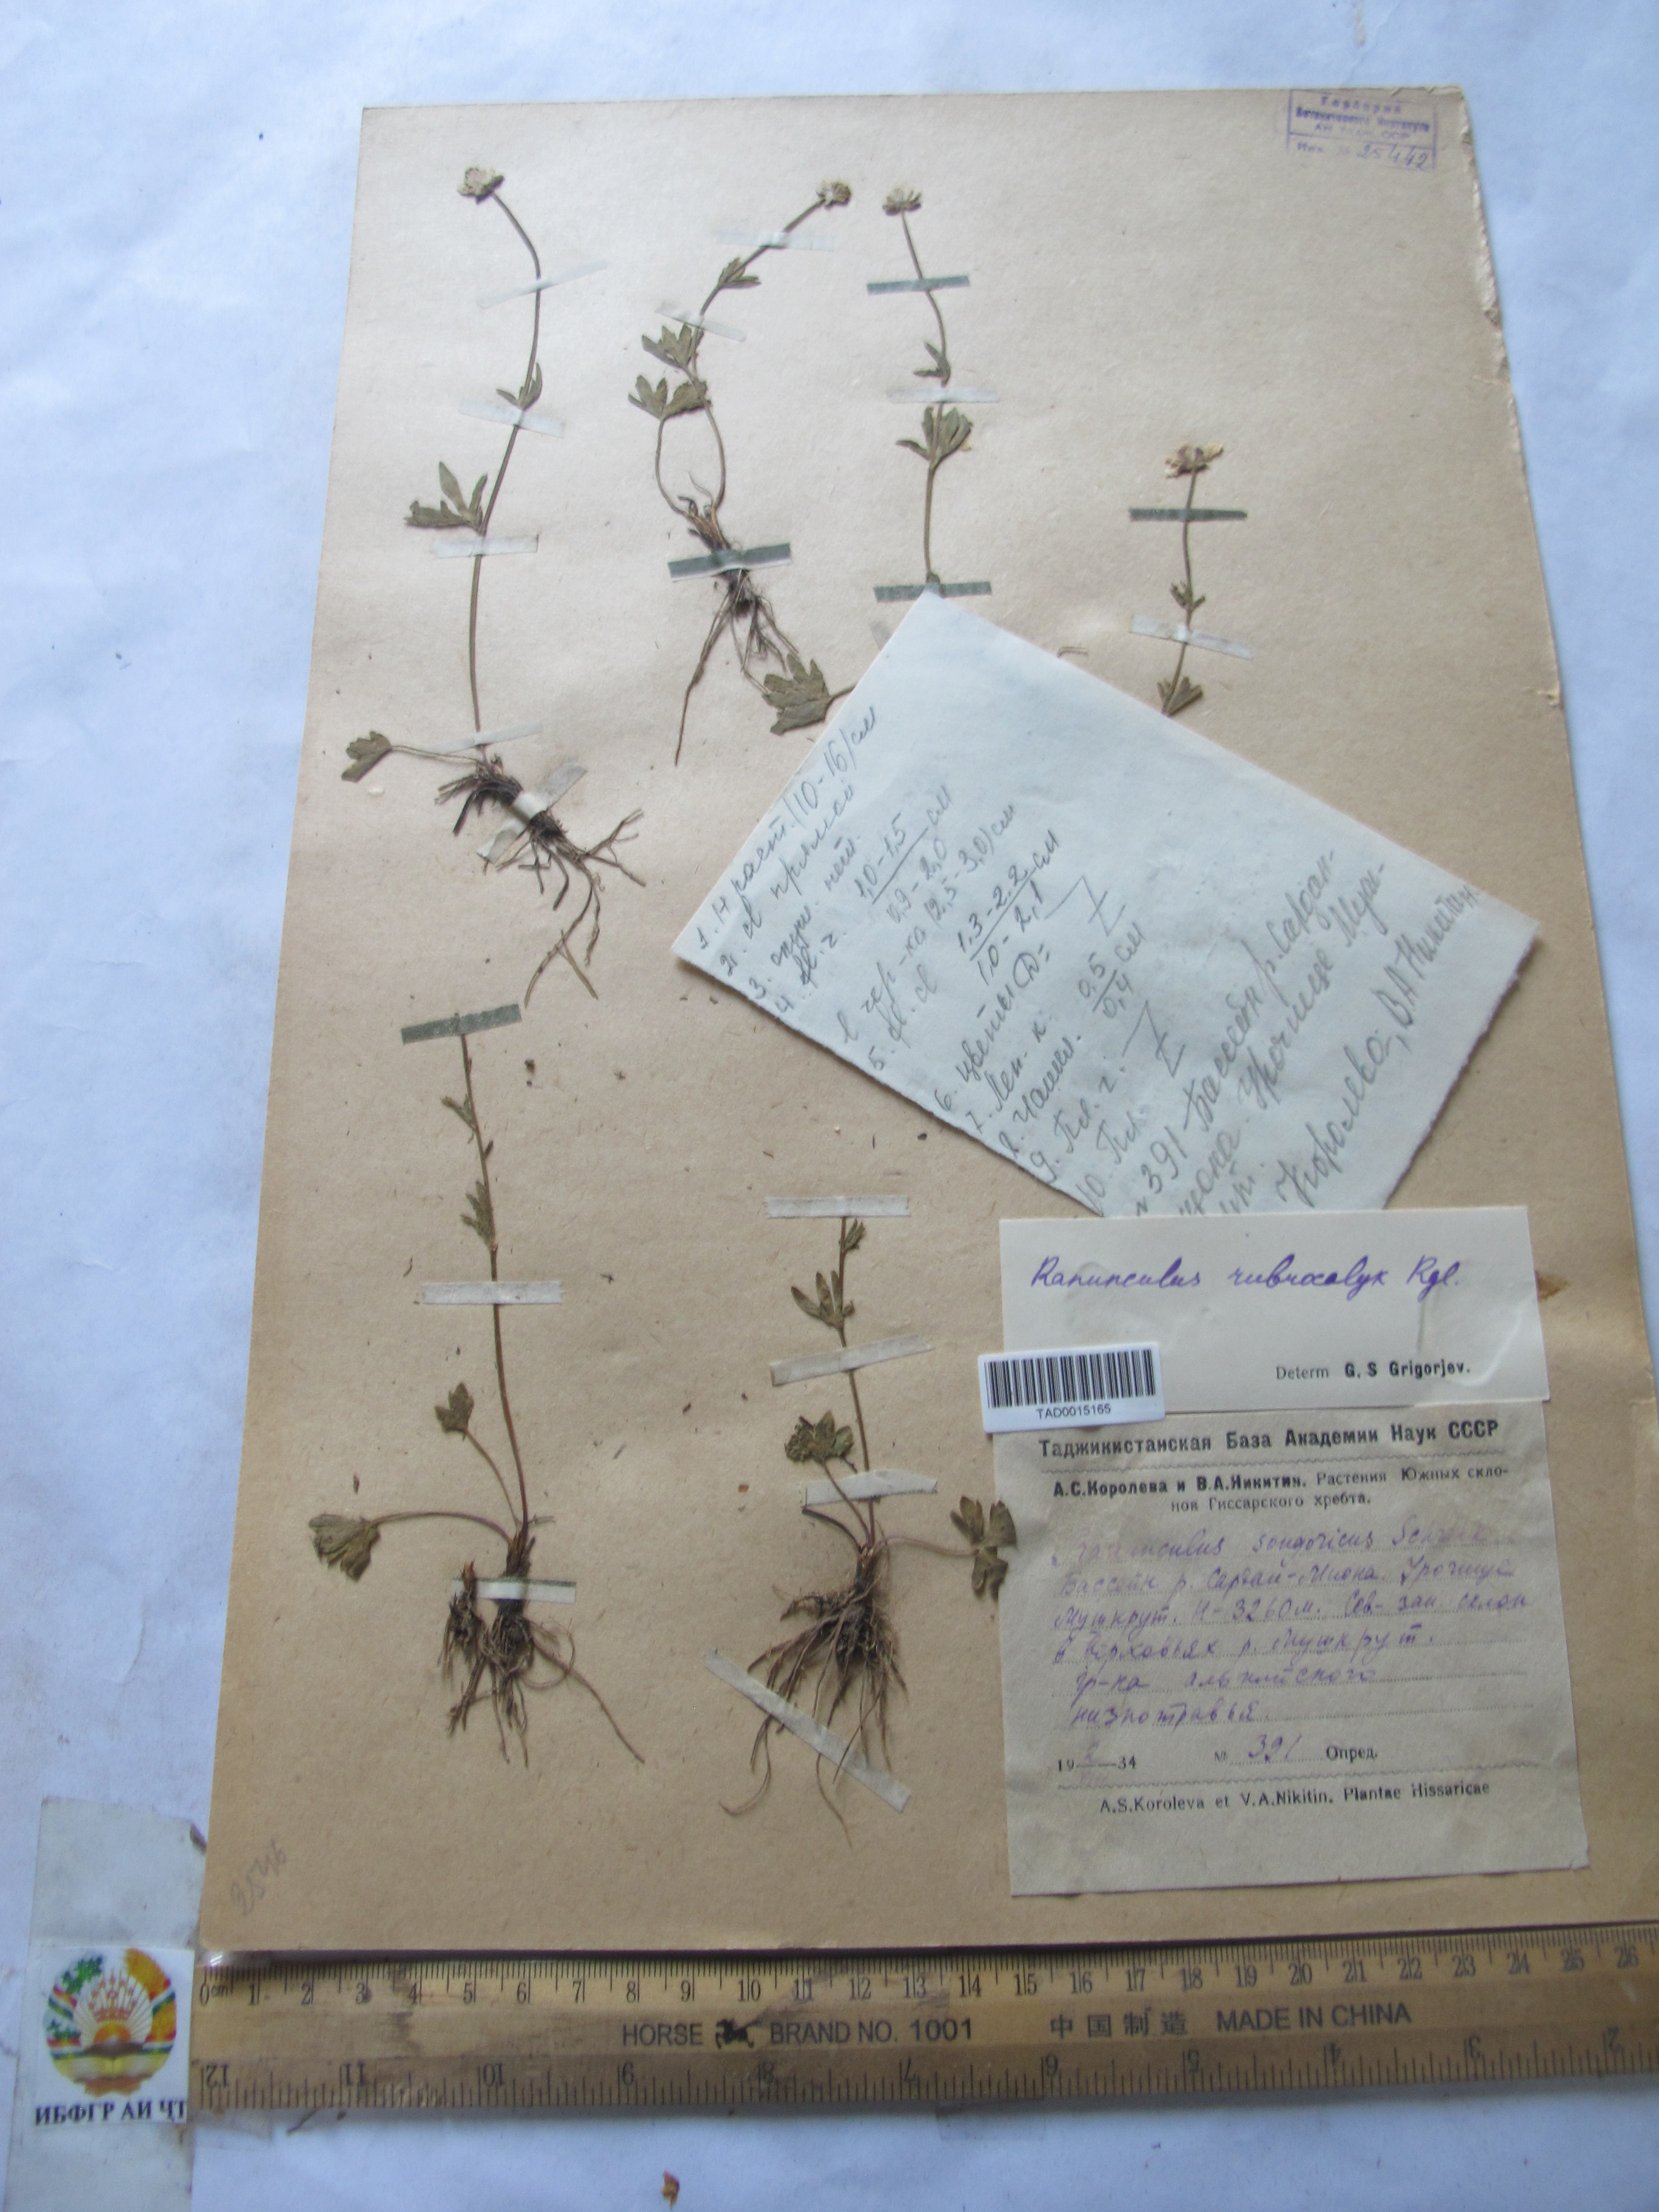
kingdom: Plantae
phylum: Tracheophyta
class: Magnoliopsida
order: Ranunculales
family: Ranunculaceae
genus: Ranunculus
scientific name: Ranunculus rubrocalyx
